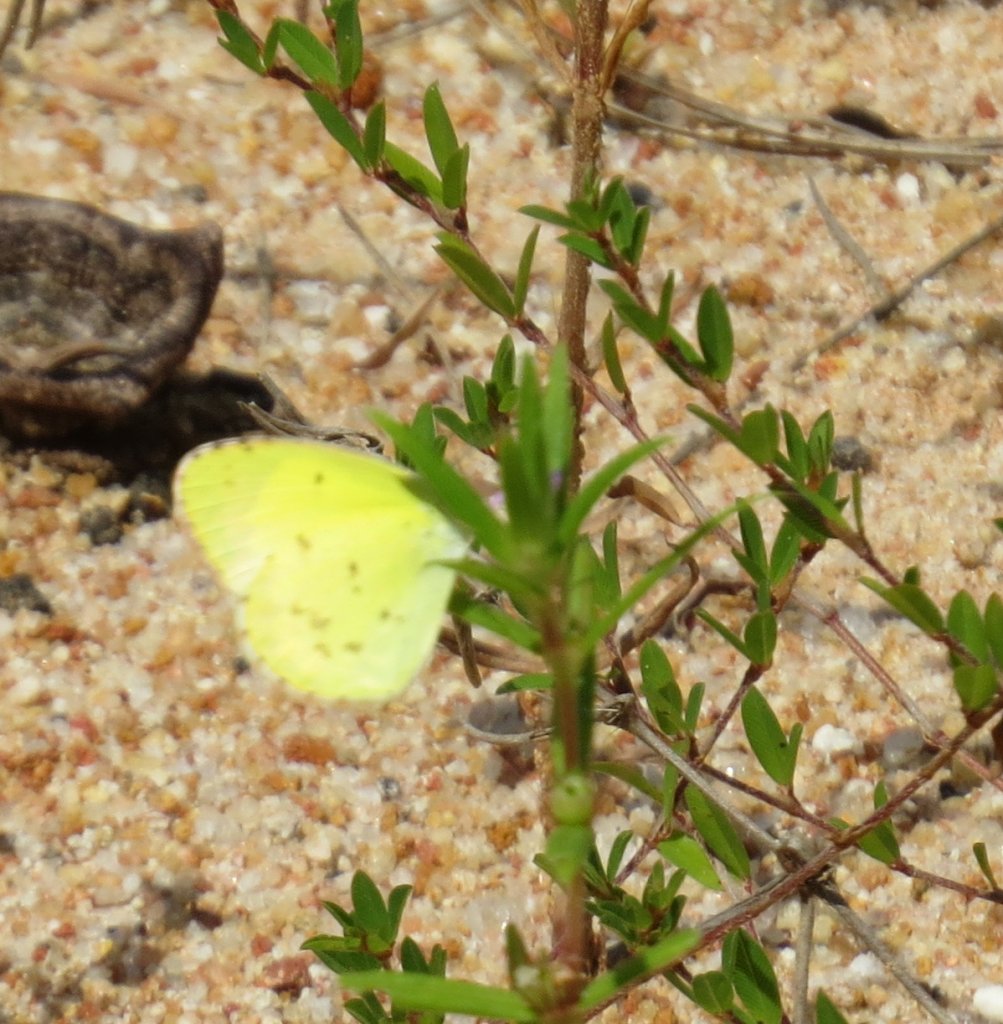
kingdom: Animalia
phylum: Arthropoda
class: Insecta
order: Lepidoptera
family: Pieridae
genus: Pyrisitia
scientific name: Pyrisitia lisa
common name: Little Yellow
